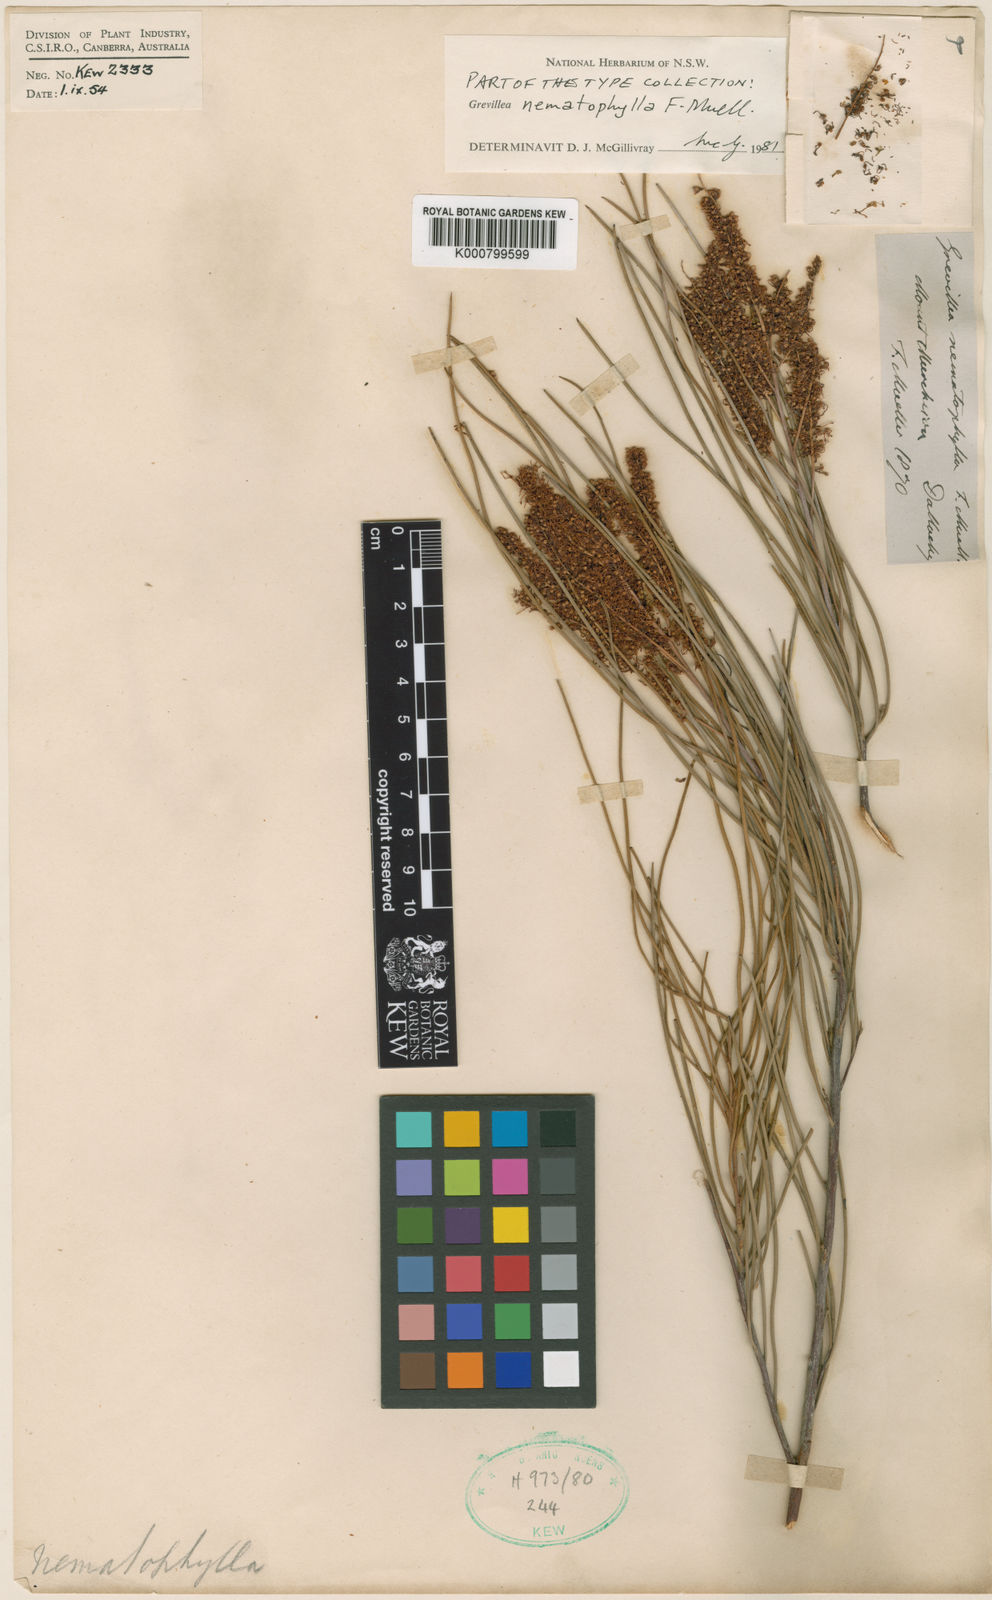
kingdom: Plantae
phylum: Tracheophyta
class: Magnoliopsida
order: Proteales
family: Proteaceae
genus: Grevillea
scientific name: Grevillea nematophylla
